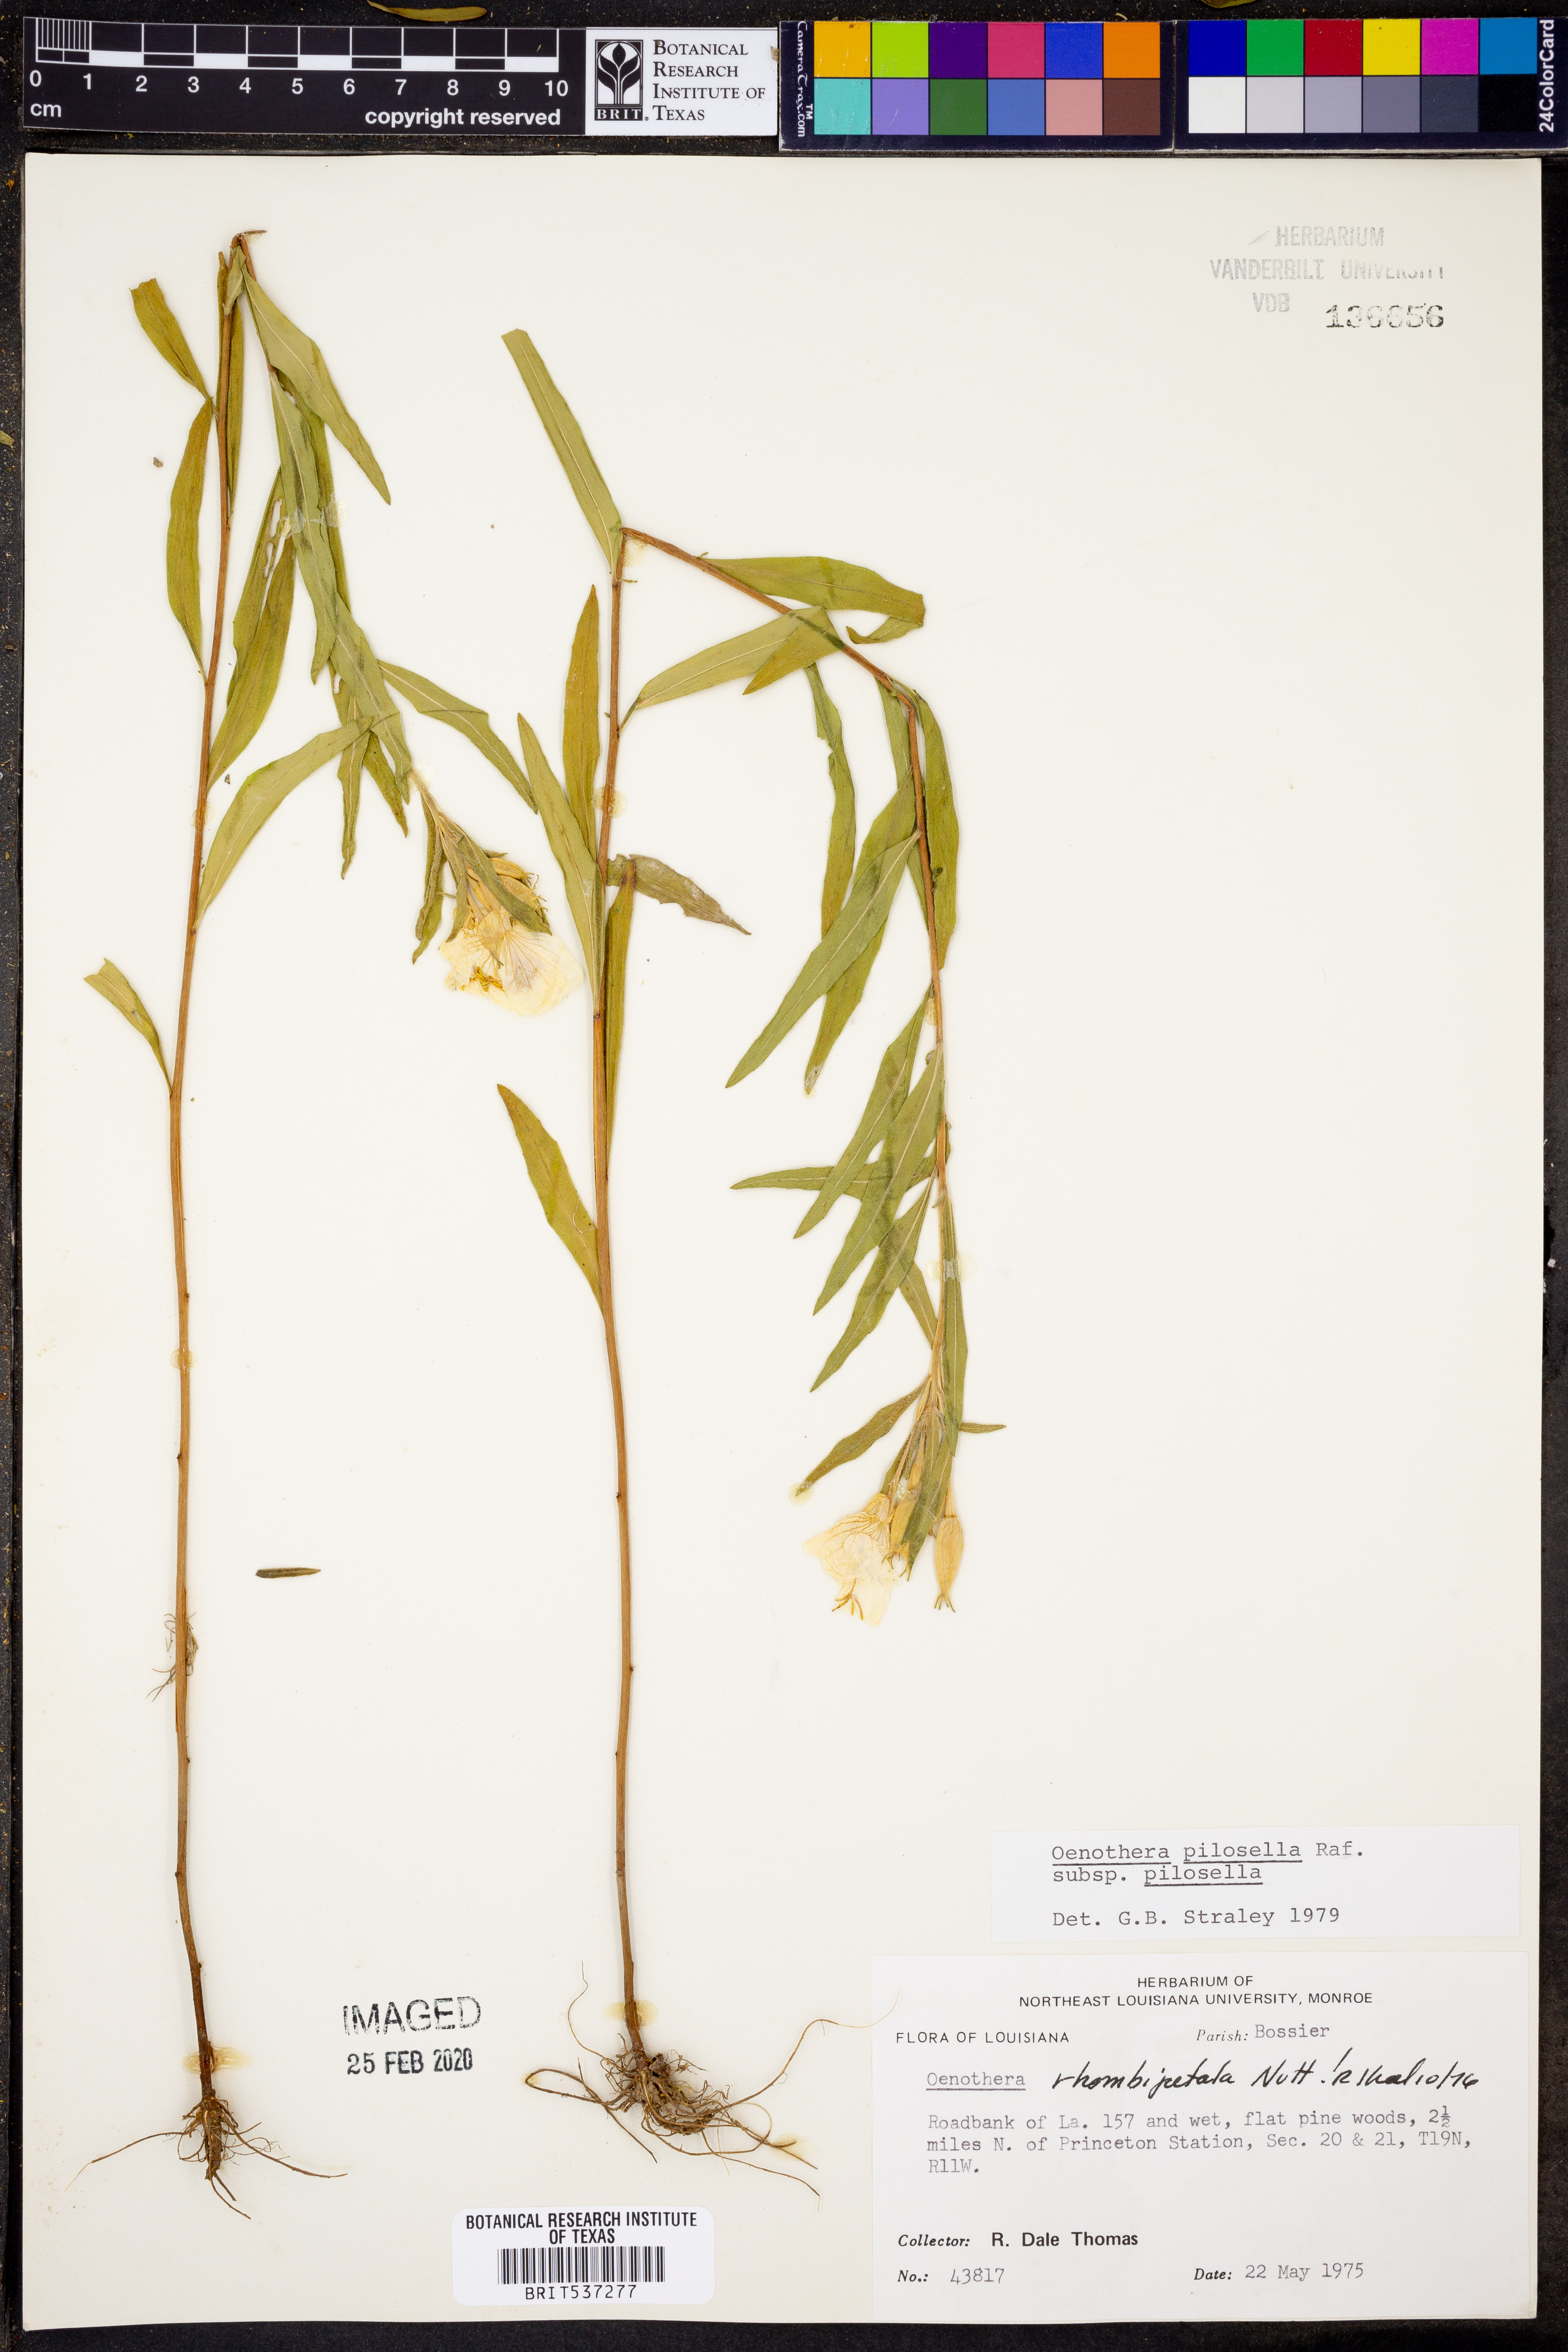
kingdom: Plantae
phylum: Tracheophyta
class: Magnoliopsida
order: Myrtales
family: Onagraceae
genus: Oenothera
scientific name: Oenothera pilosella
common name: Finely-pilose evening-primrose
